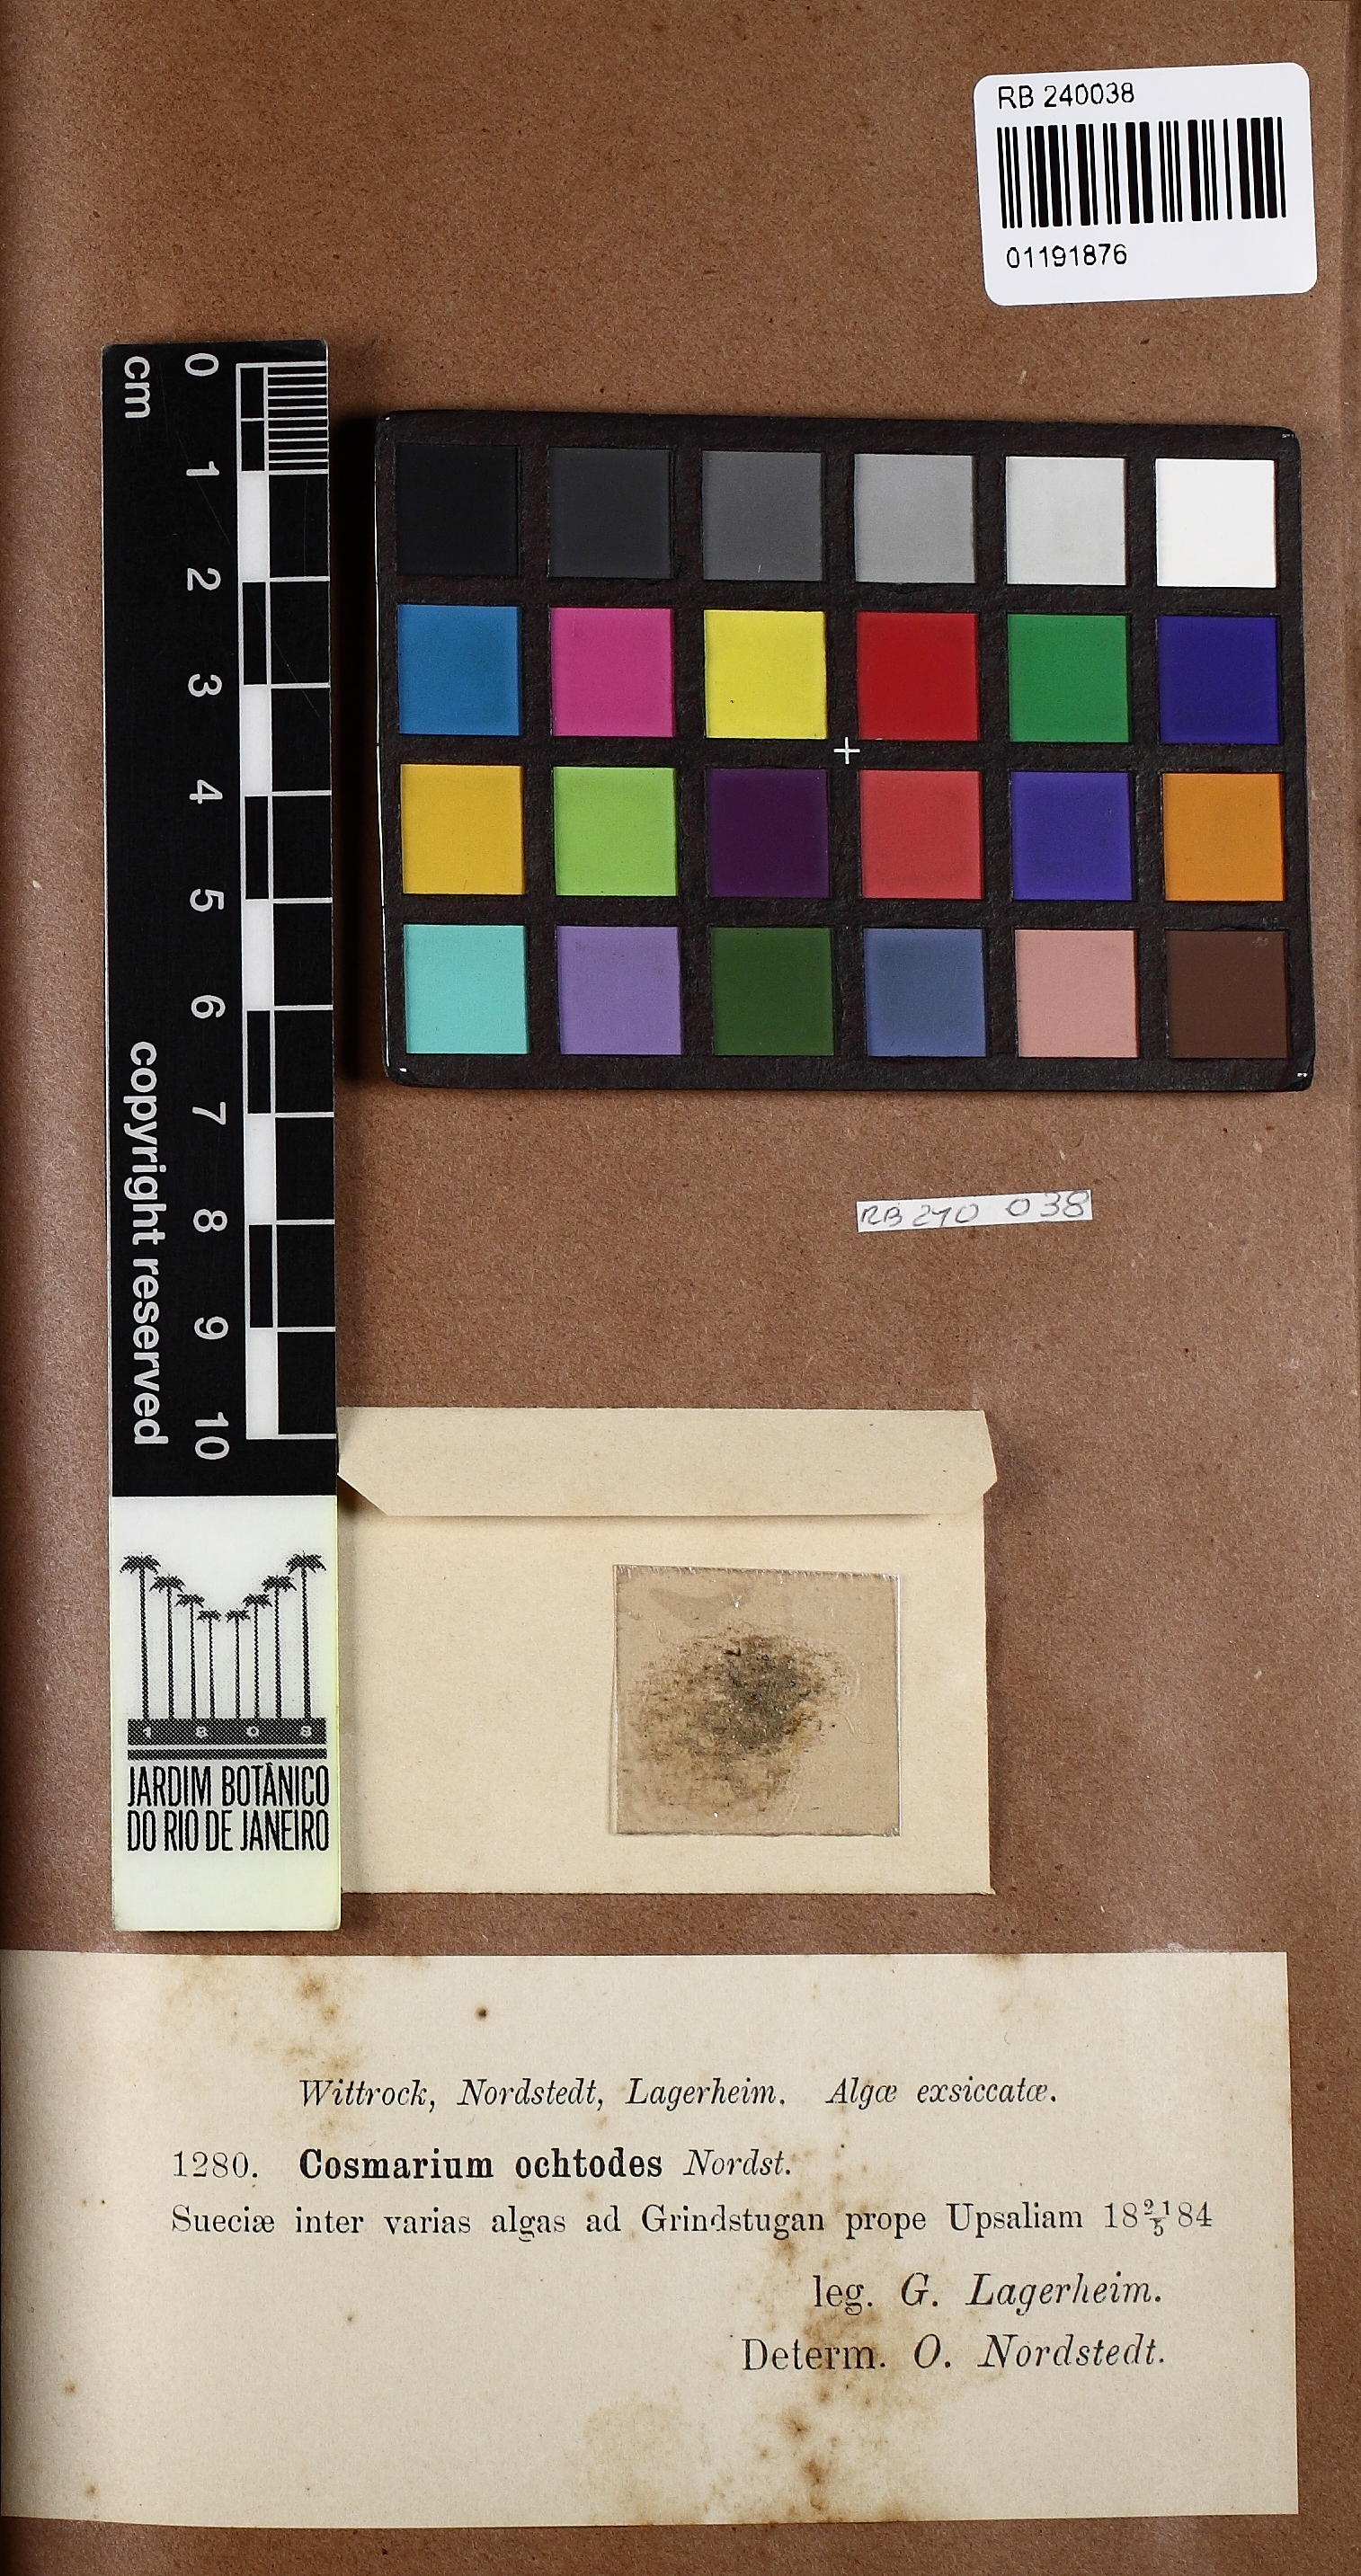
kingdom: Plantae
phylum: Charophyta
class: Conjugatophyceae
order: Desmidiales
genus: Cosmarium
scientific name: Cosmarium ochthodes
